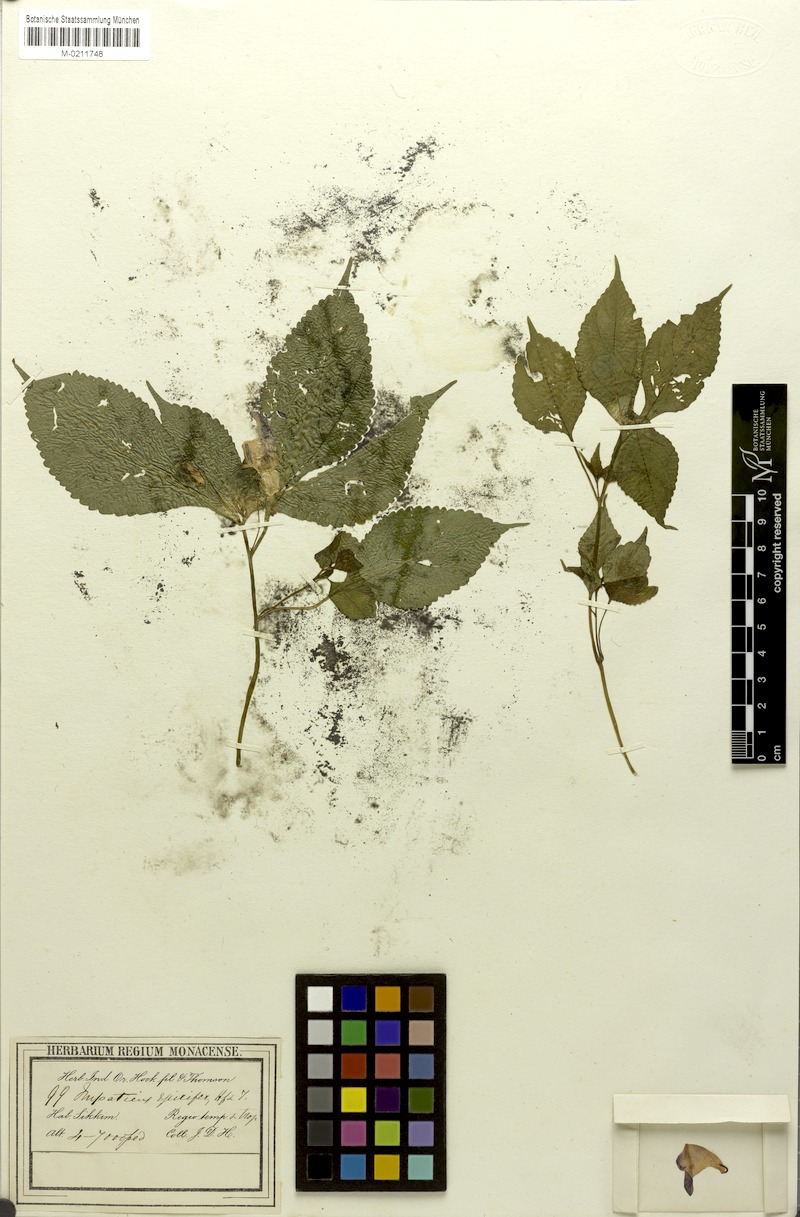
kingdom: Plantae
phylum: Tracheophyta
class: Magnoliopsida
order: Ericales
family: Balsaminaceae
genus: Impatiens
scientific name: Impatiens spirifer
